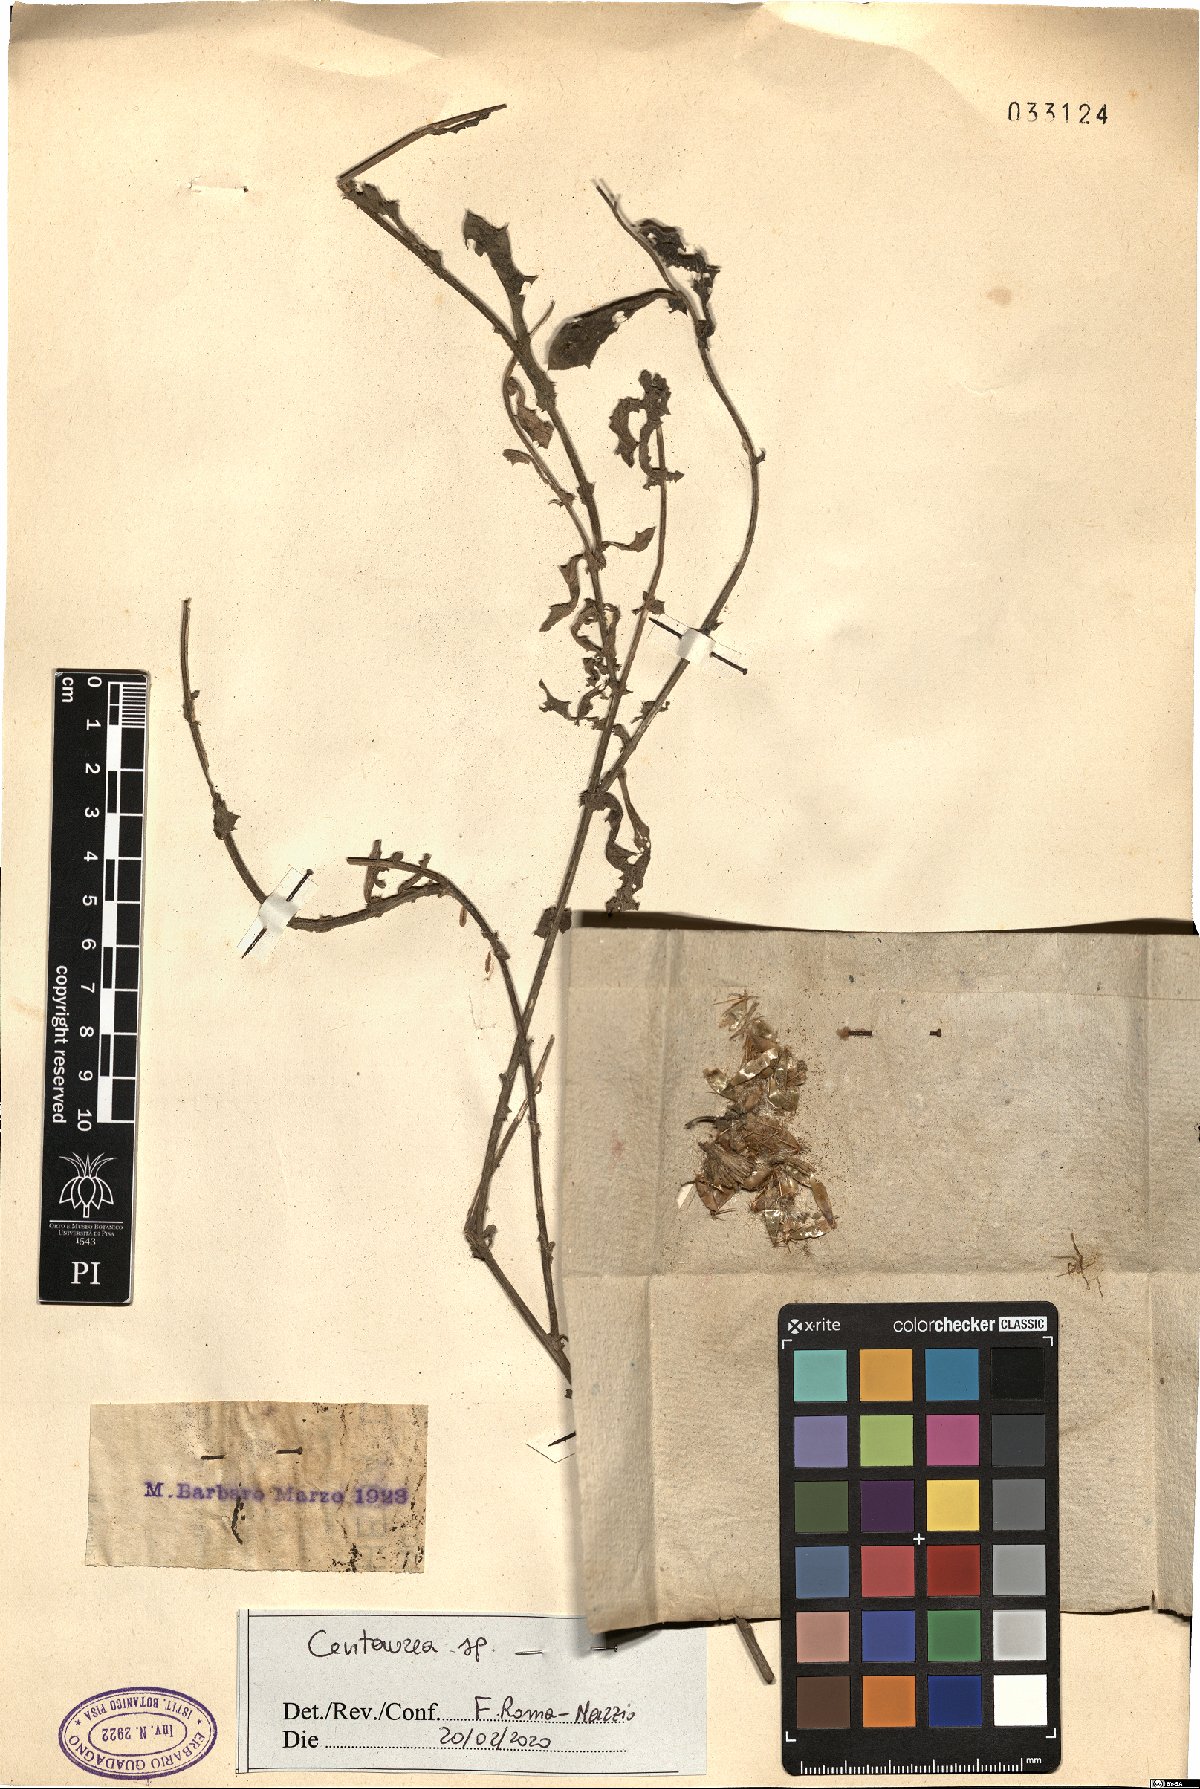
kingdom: Plantae
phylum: Tracheophyta
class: Magnoliopsida
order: Asterales
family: Asteraceae
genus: Centaurea
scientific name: Centaurea
